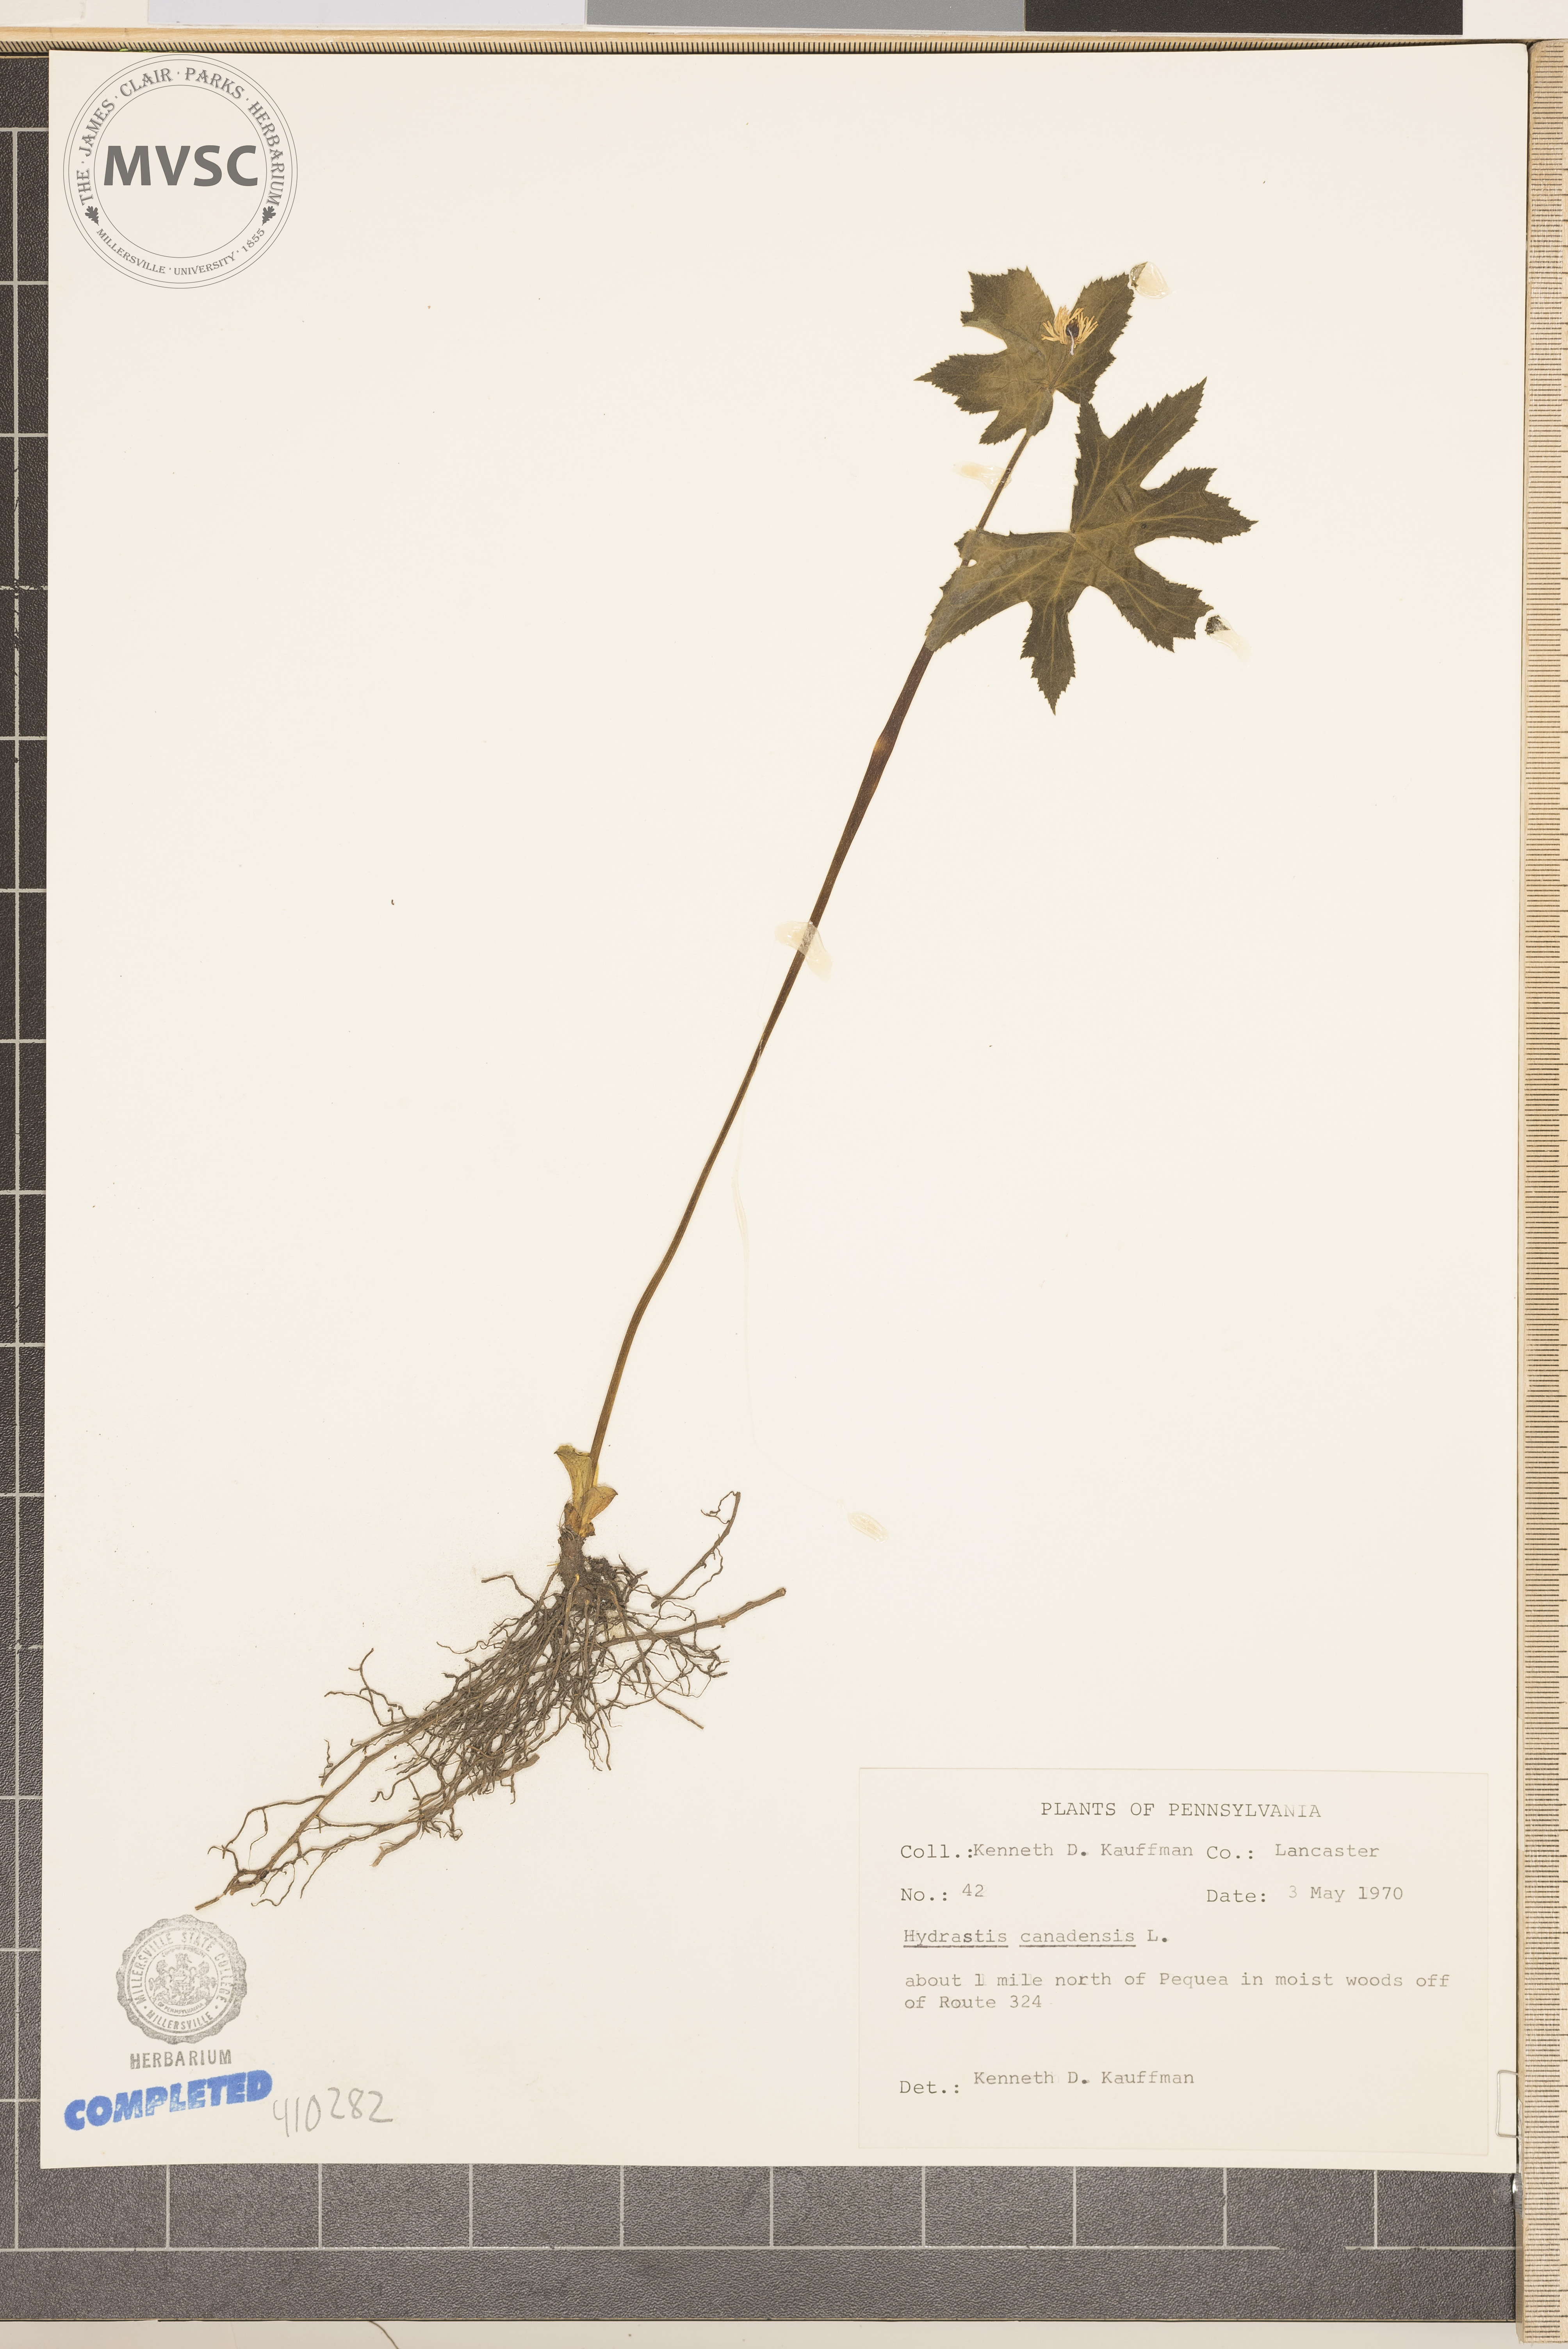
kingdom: Plantae
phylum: Tracheophyta
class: Magnoliopsida
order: Ranunculales
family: Ranunculaceae
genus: Hydrastis
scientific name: Hydrastis canadensis
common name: Goldenseal
